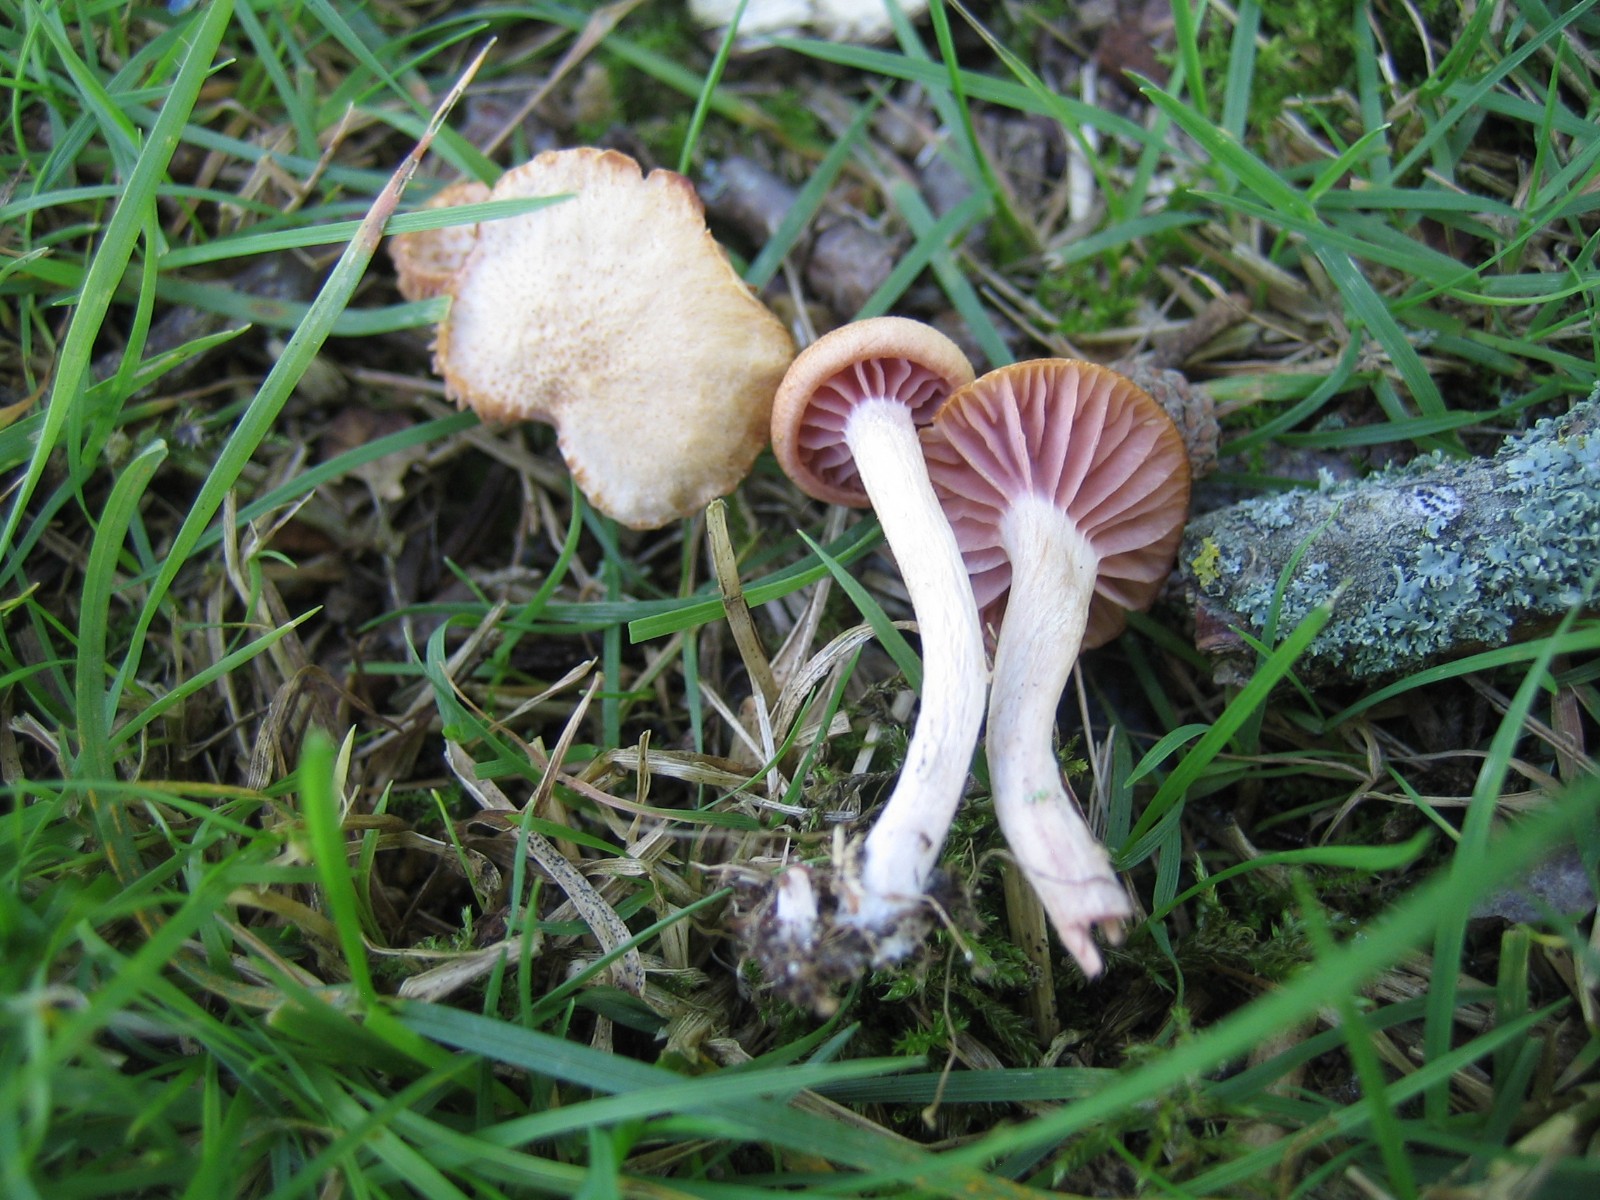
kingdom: Fungi
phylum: Basidiomycota
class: Agaricomycetes
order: Agaricales
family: Hydnangiaceae
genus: Laccaria
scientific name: Laccaria laccata
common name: rød ametysthat
